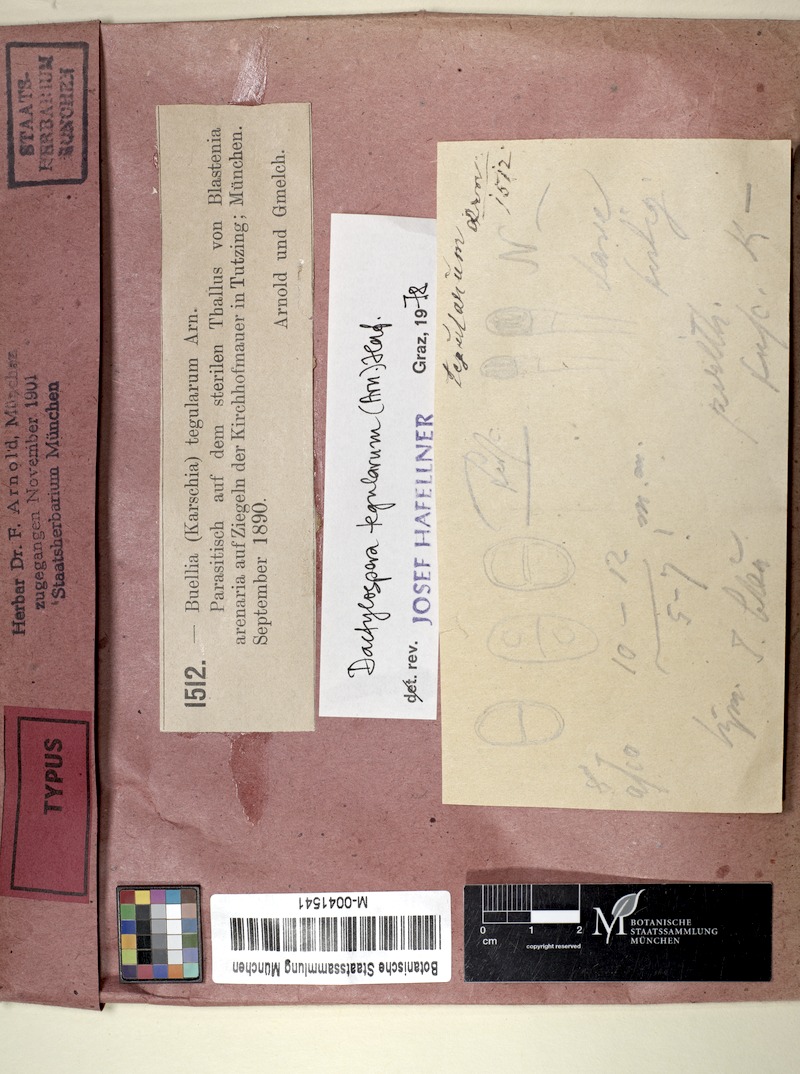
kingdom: Fungi
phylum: Ascomycota
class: Eurotiomycetes
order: Sclerococcales
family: Sclerococcaceae
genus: Sclerococcum
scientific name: Sclerococcum tegularum
